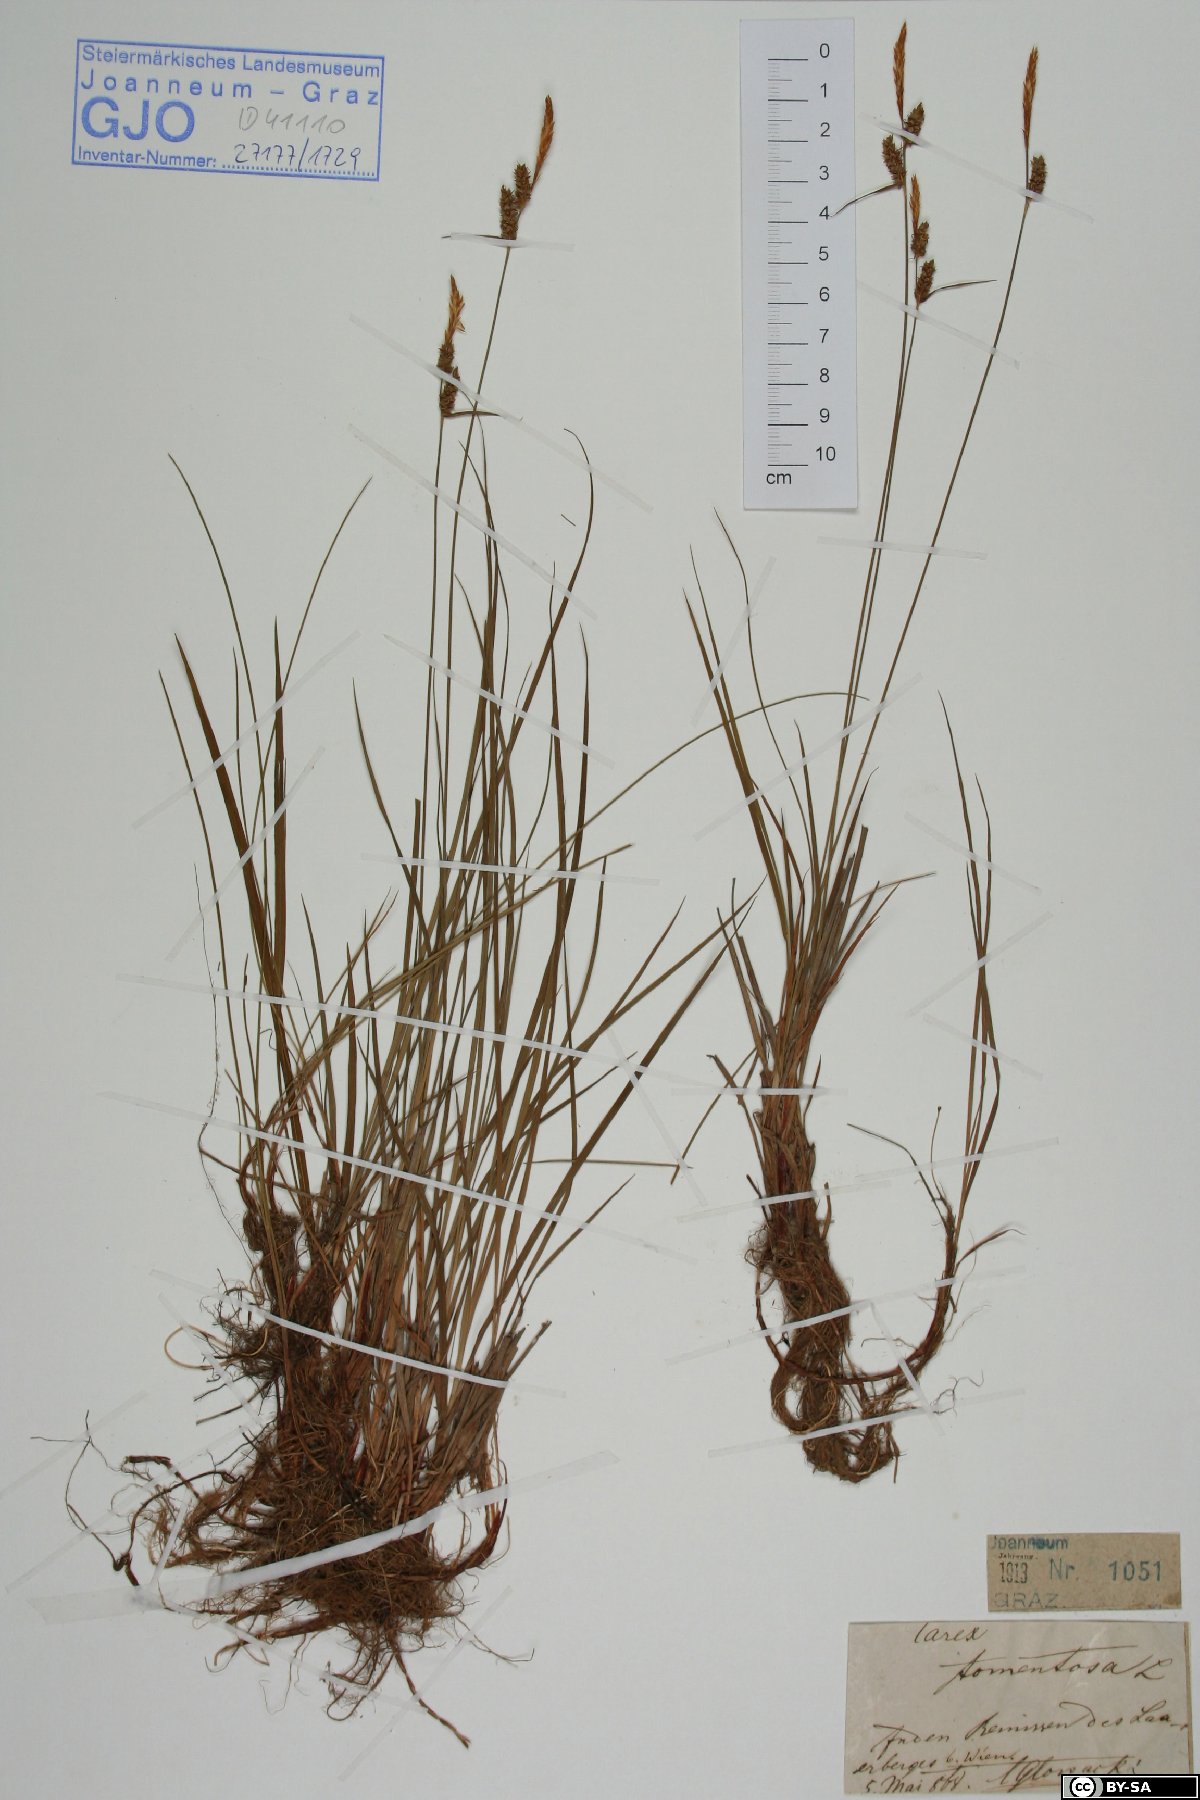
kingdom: Plantae
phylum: Tracheophyta
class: Liliopsida
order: Poales
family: Cyperaceae
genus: Carex
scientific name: Carex tomentosa
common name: Downy-fruited sedge
